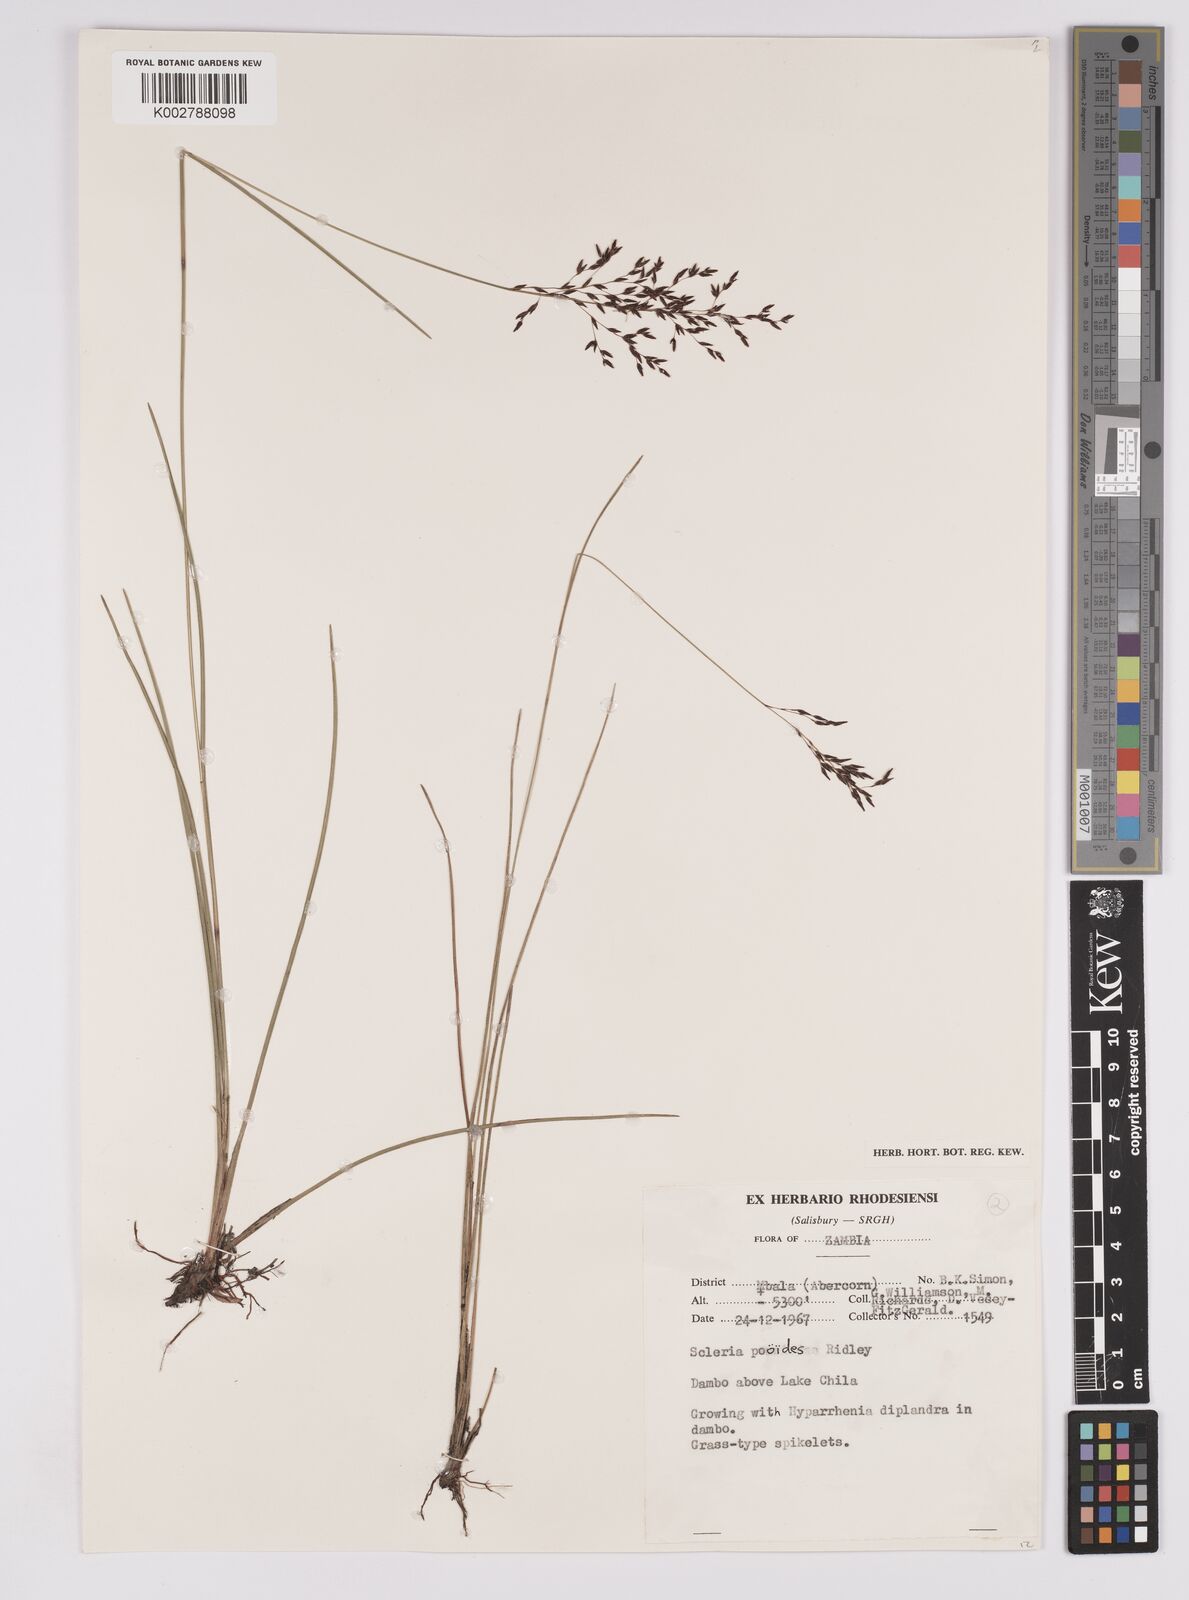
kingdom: Plantae
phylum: Tracheophyta
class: Liliopsida
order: Poales
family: Cyperaceae
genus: Scleria
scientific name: Scleria pooides
